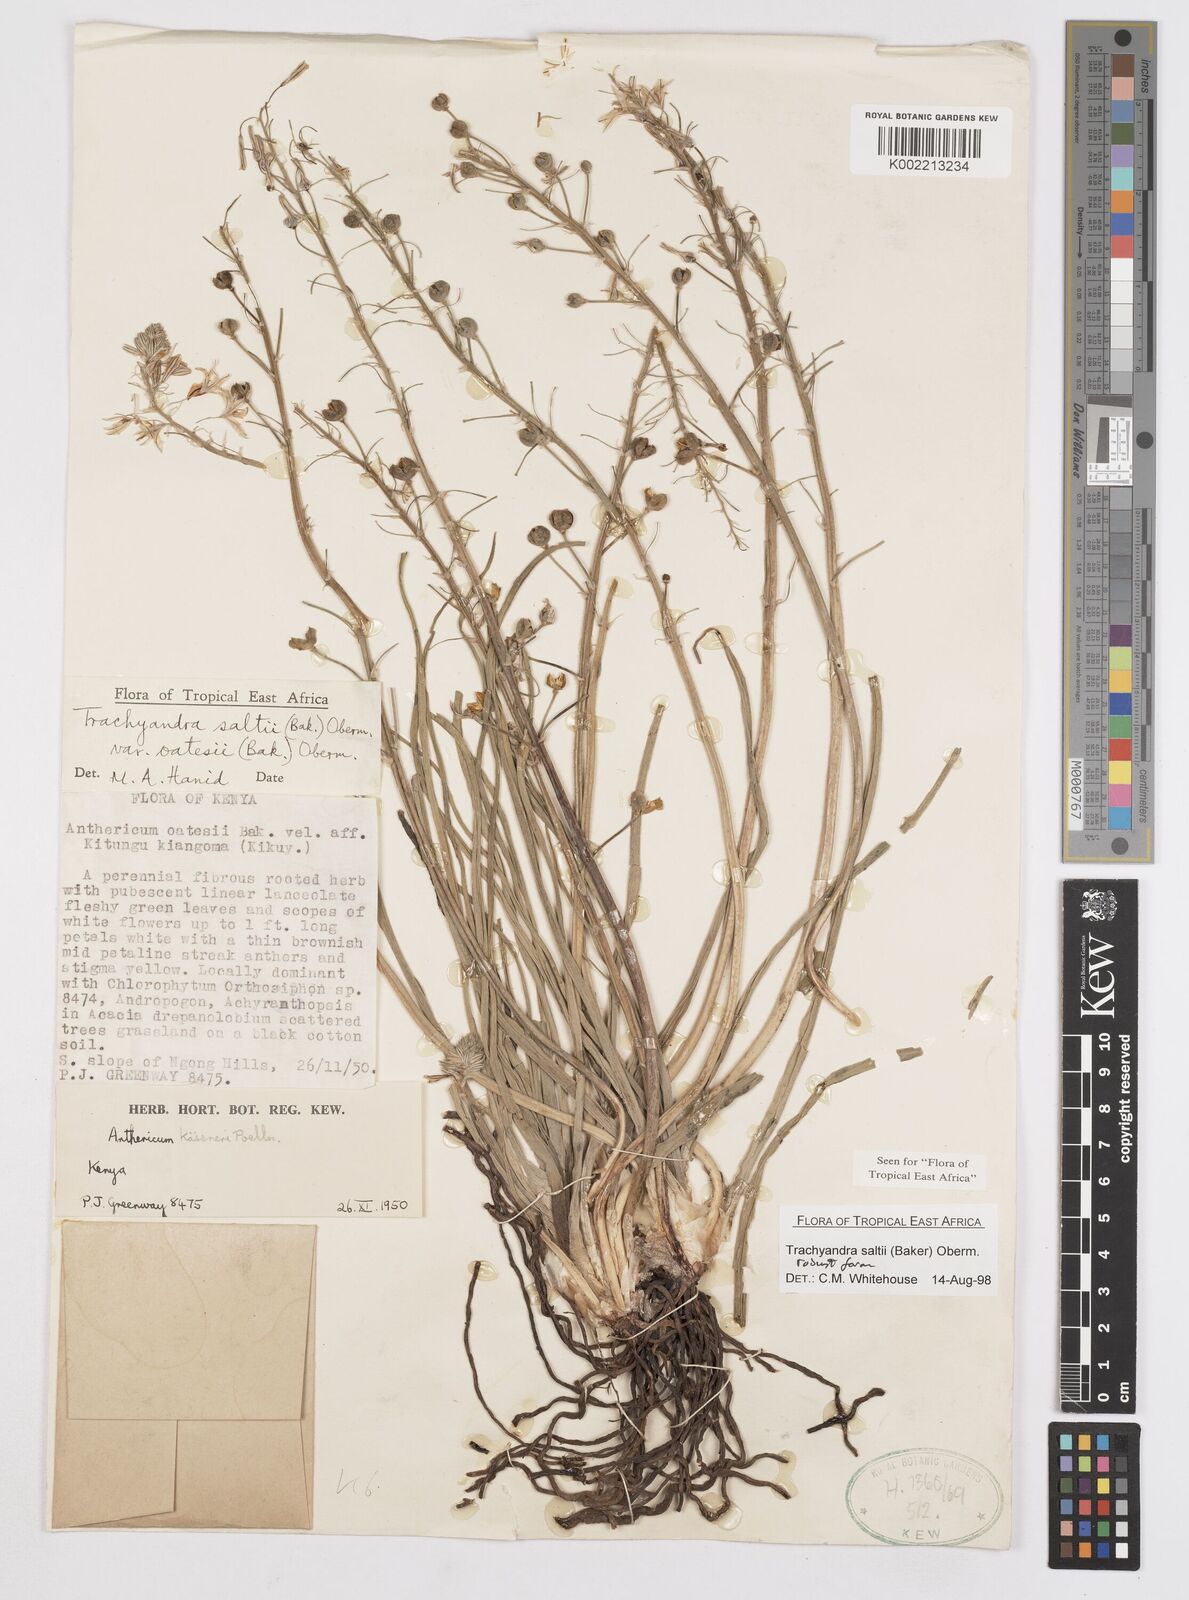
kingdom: Plantae
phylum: Tracheophyta
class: Liliopsida
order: Asparagales
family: Asphodelaceae
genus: Trachyandra
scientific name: Trachyandra saltii
